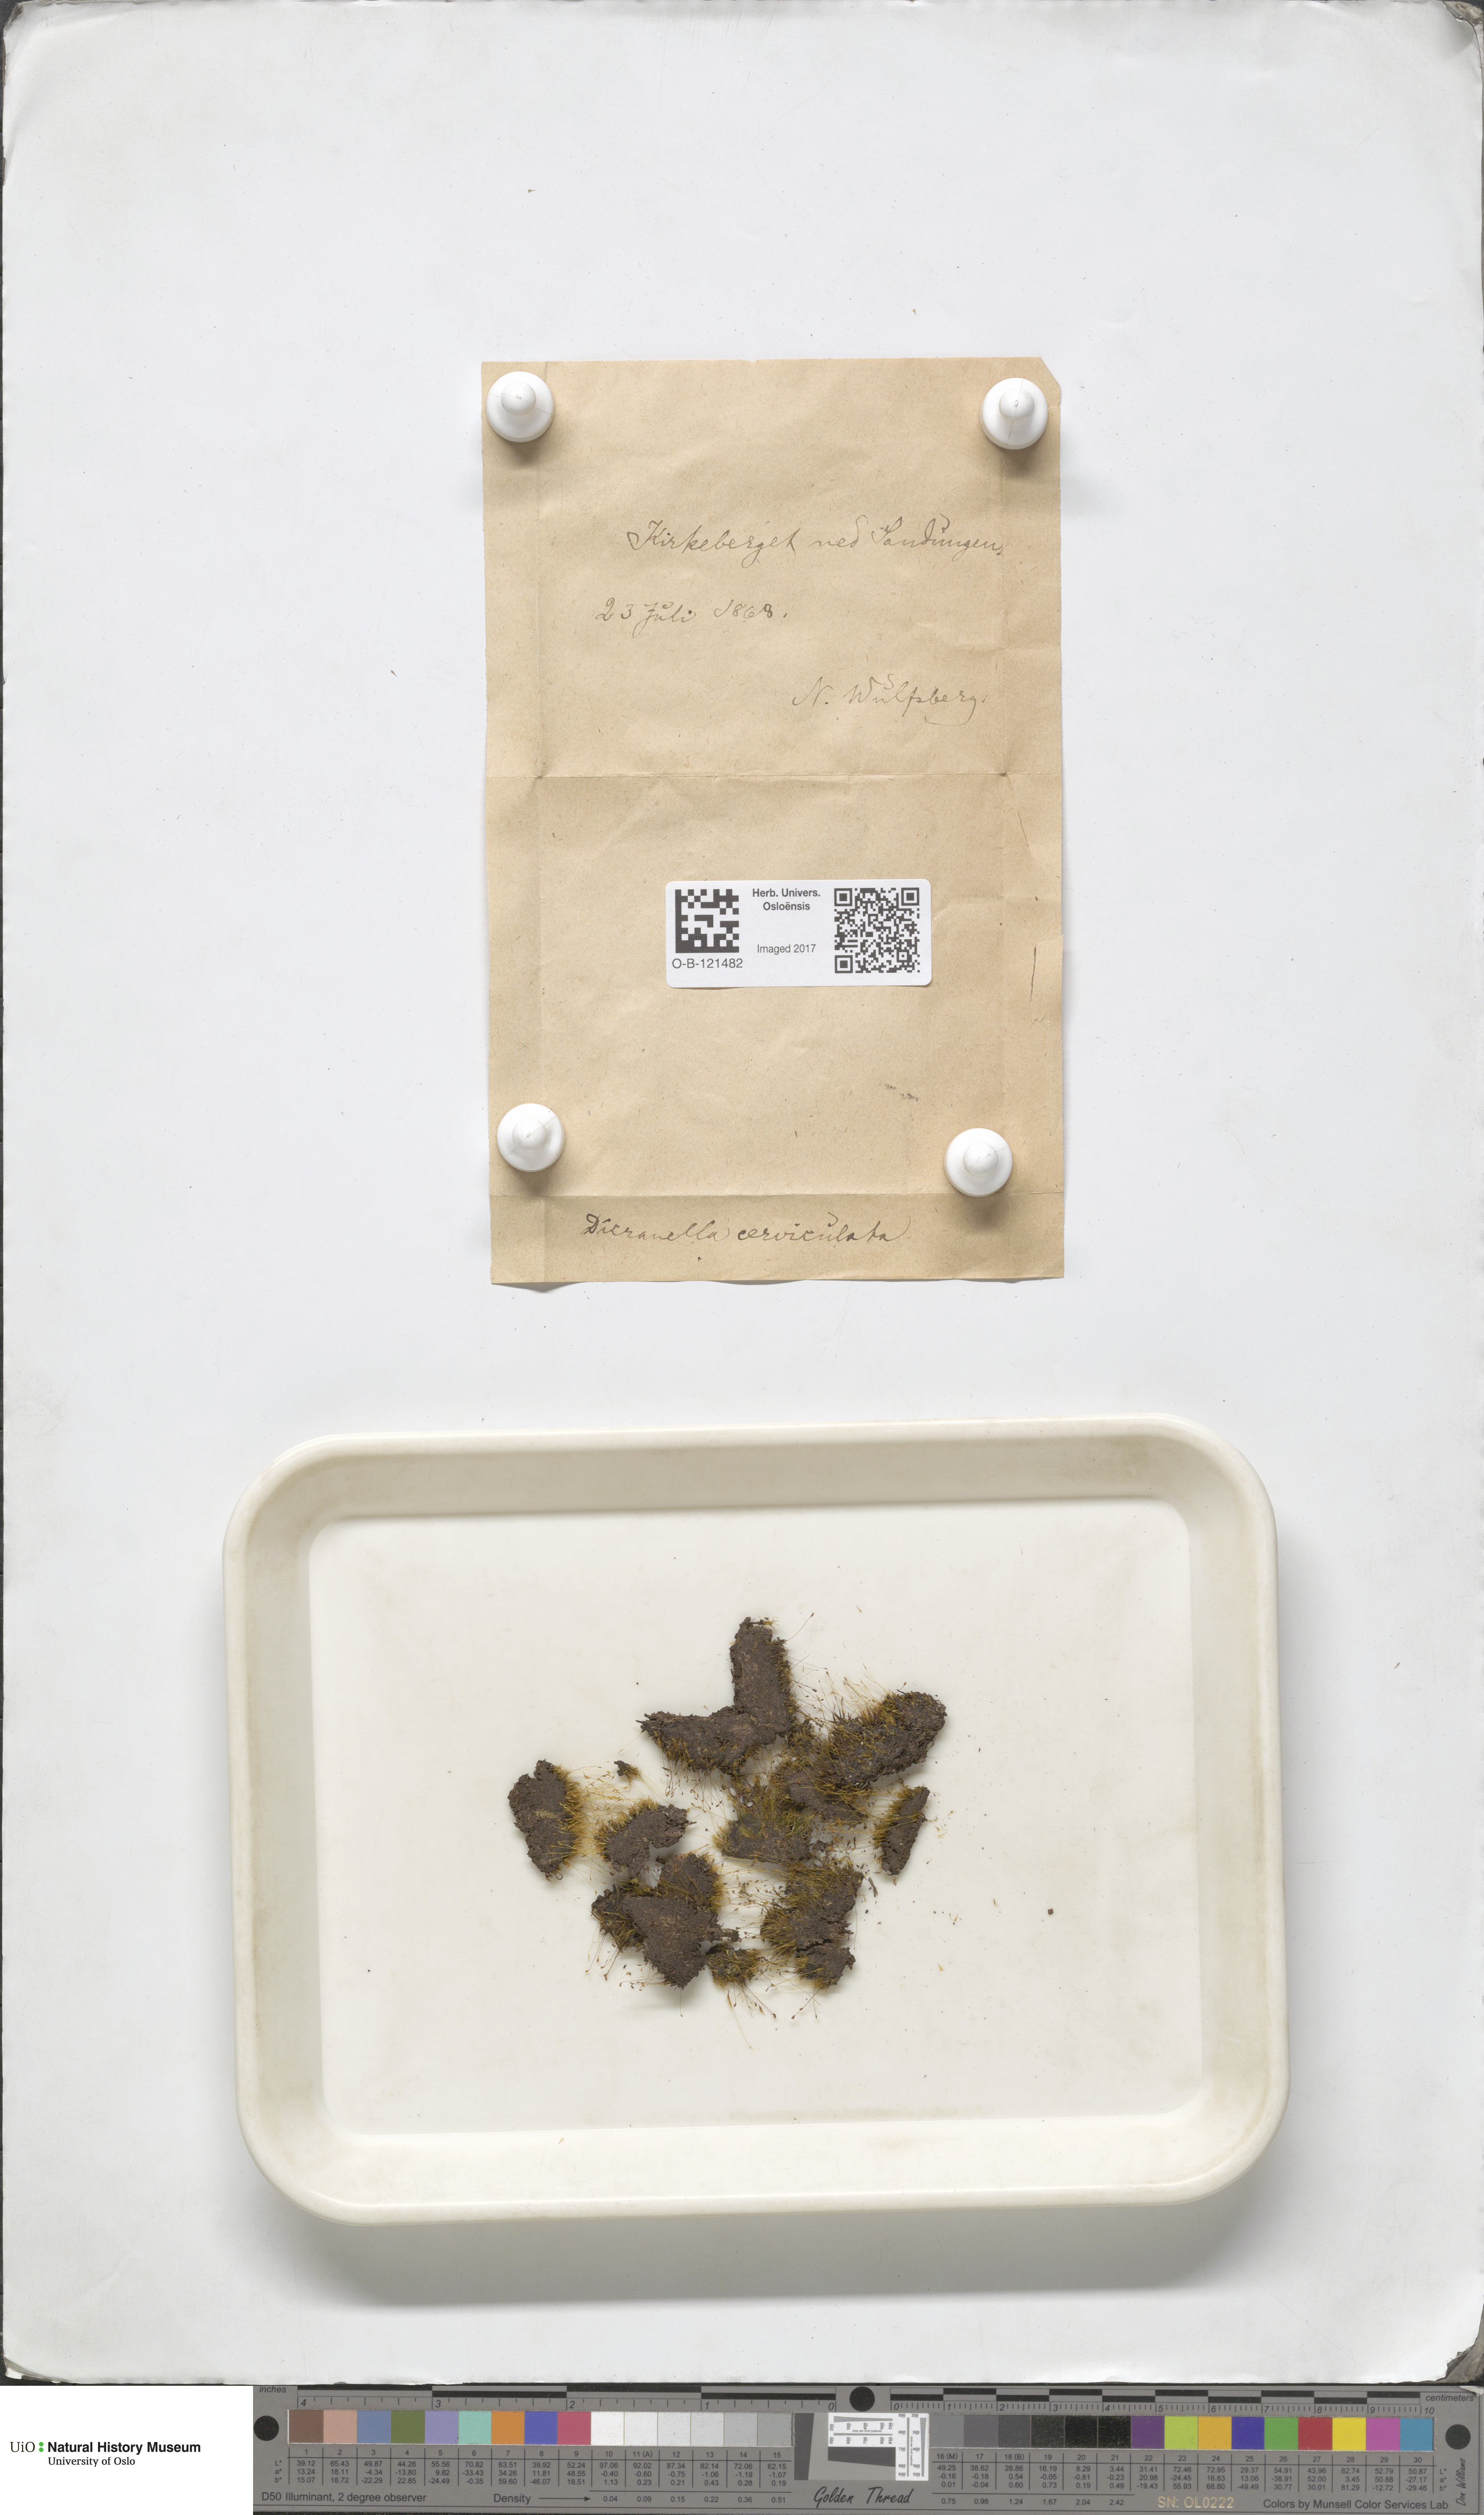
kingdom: Plantae
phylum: Bryophyta
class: Bryopsida
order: Dicranales
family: Dicranellaceae
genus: Dicranella
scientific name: Dicranella cerviculata
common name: Spur-necked forklet moss
